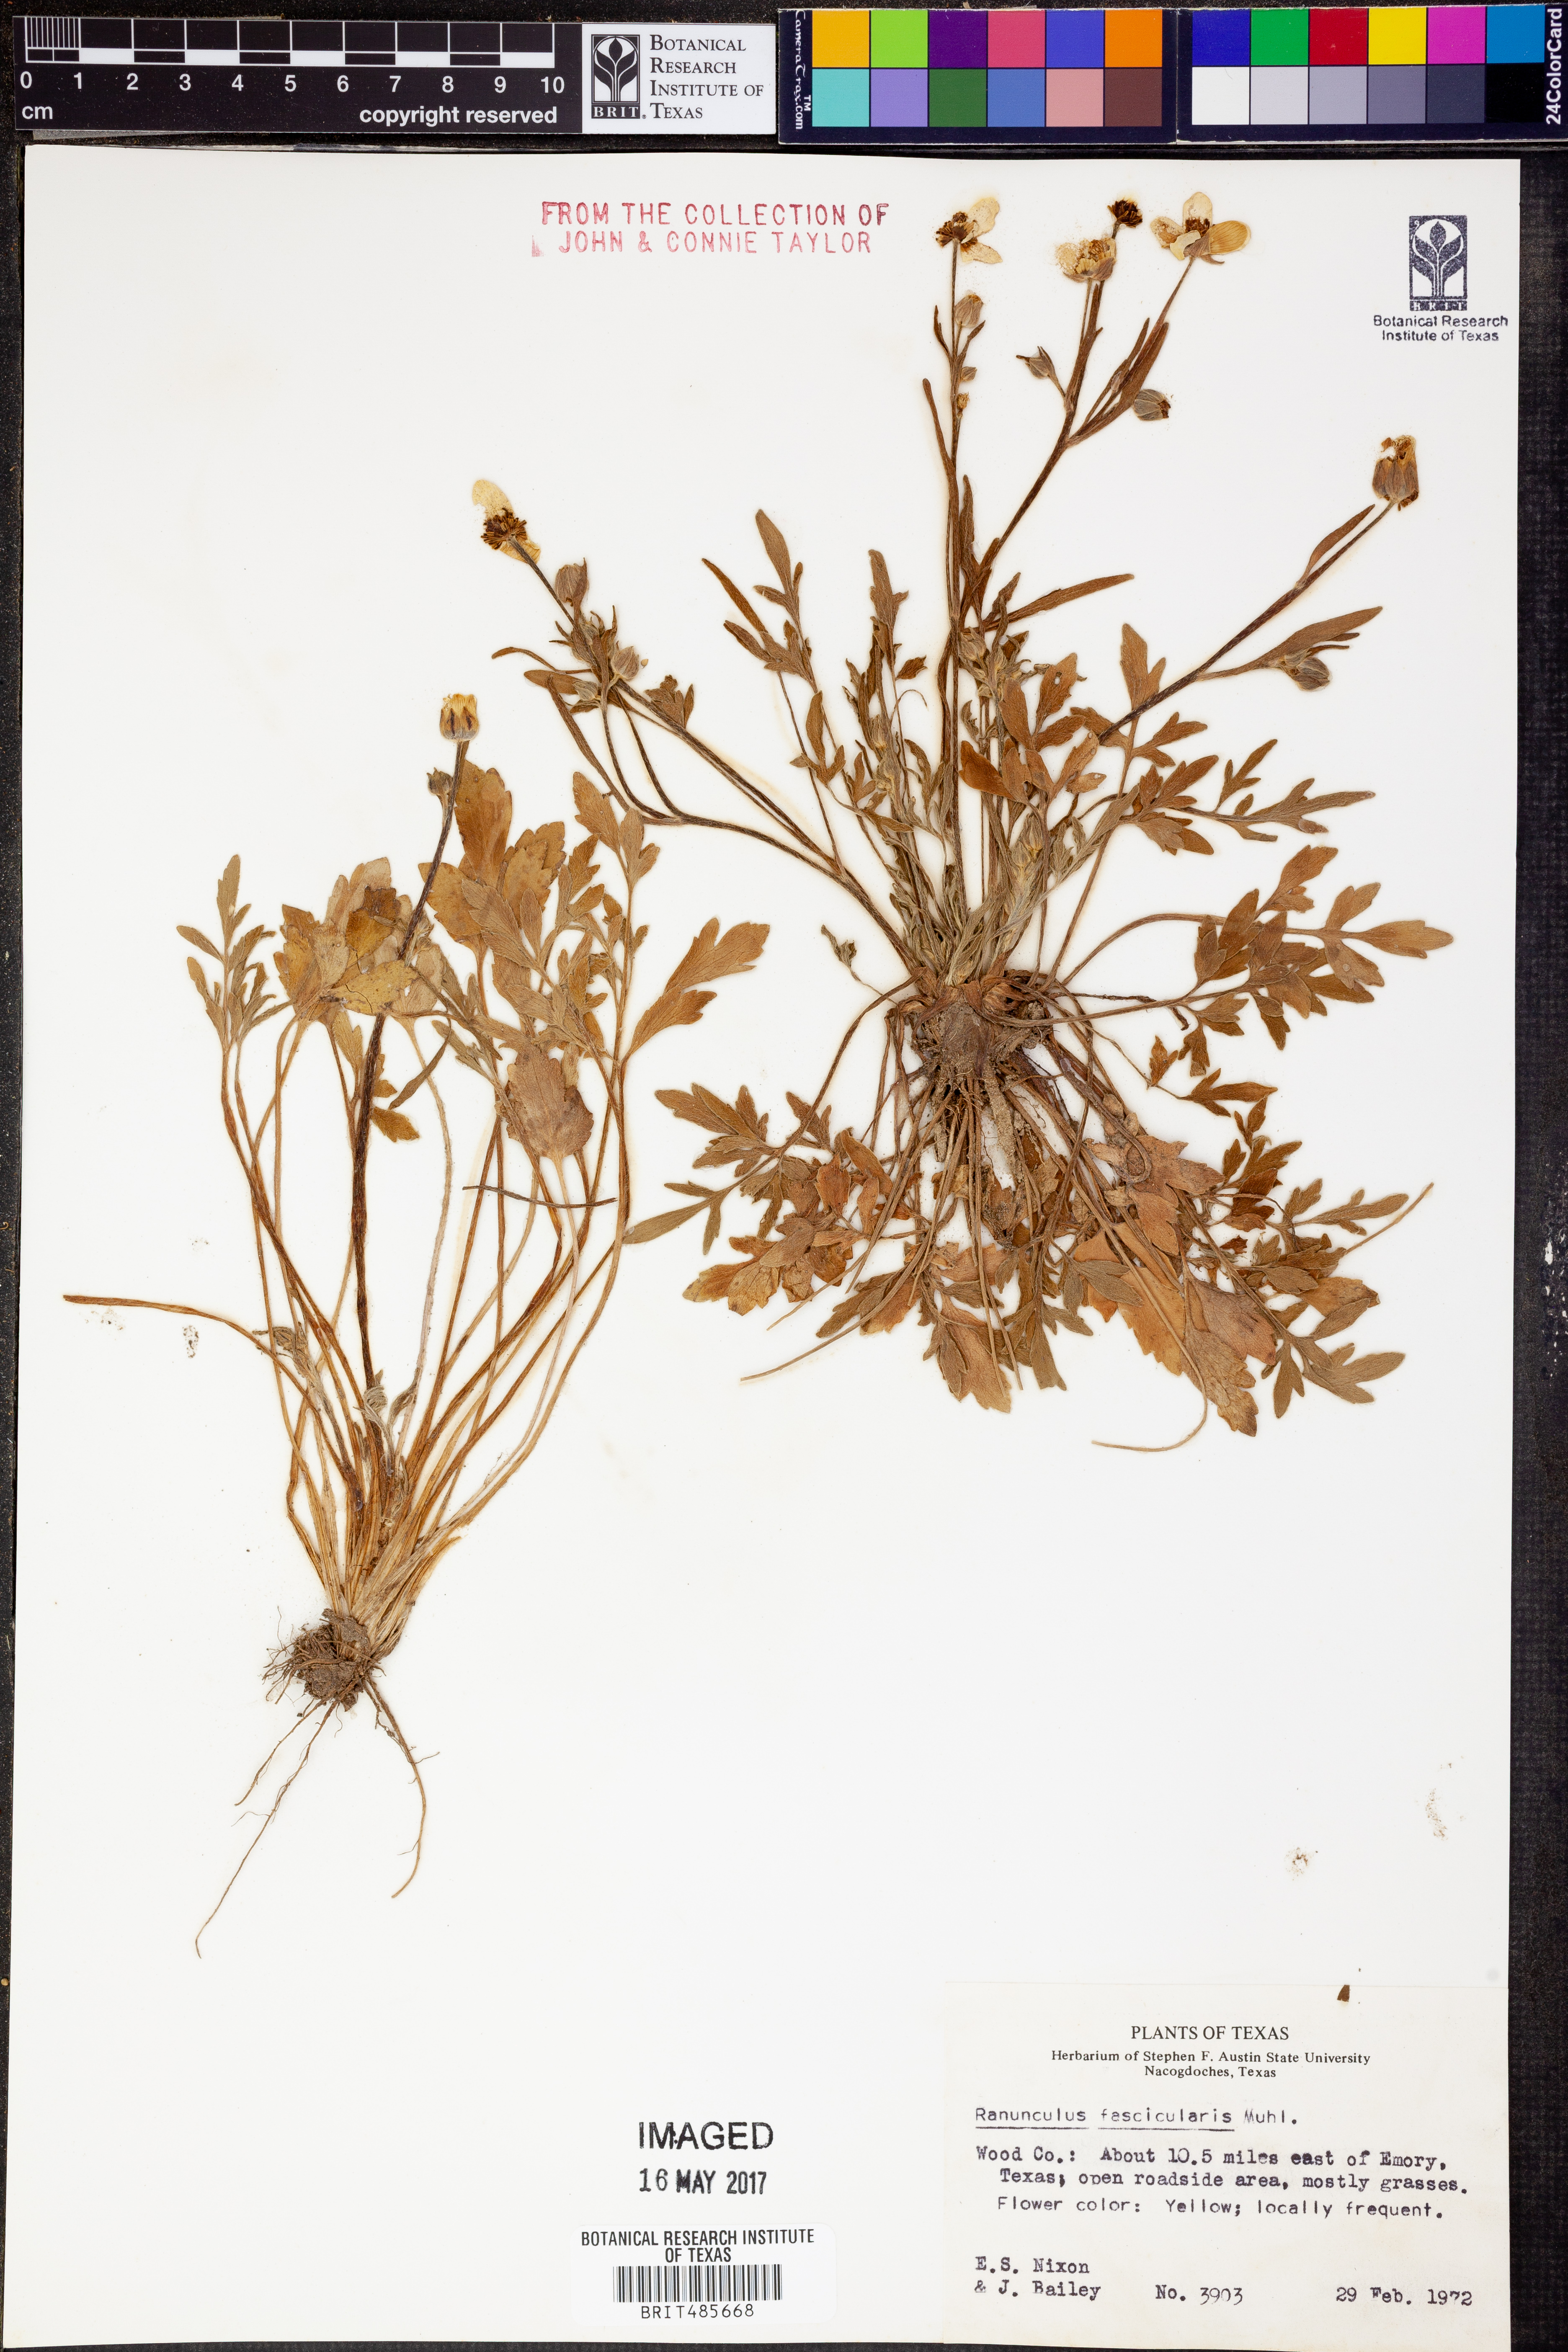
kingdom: Plantae
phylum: Tracheophyta
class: Magnoliopsida
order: Ranunculales
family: Ranunculaceae
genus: Ranunculus
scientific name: Ranunculus fascicularis
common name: Early buttercup
